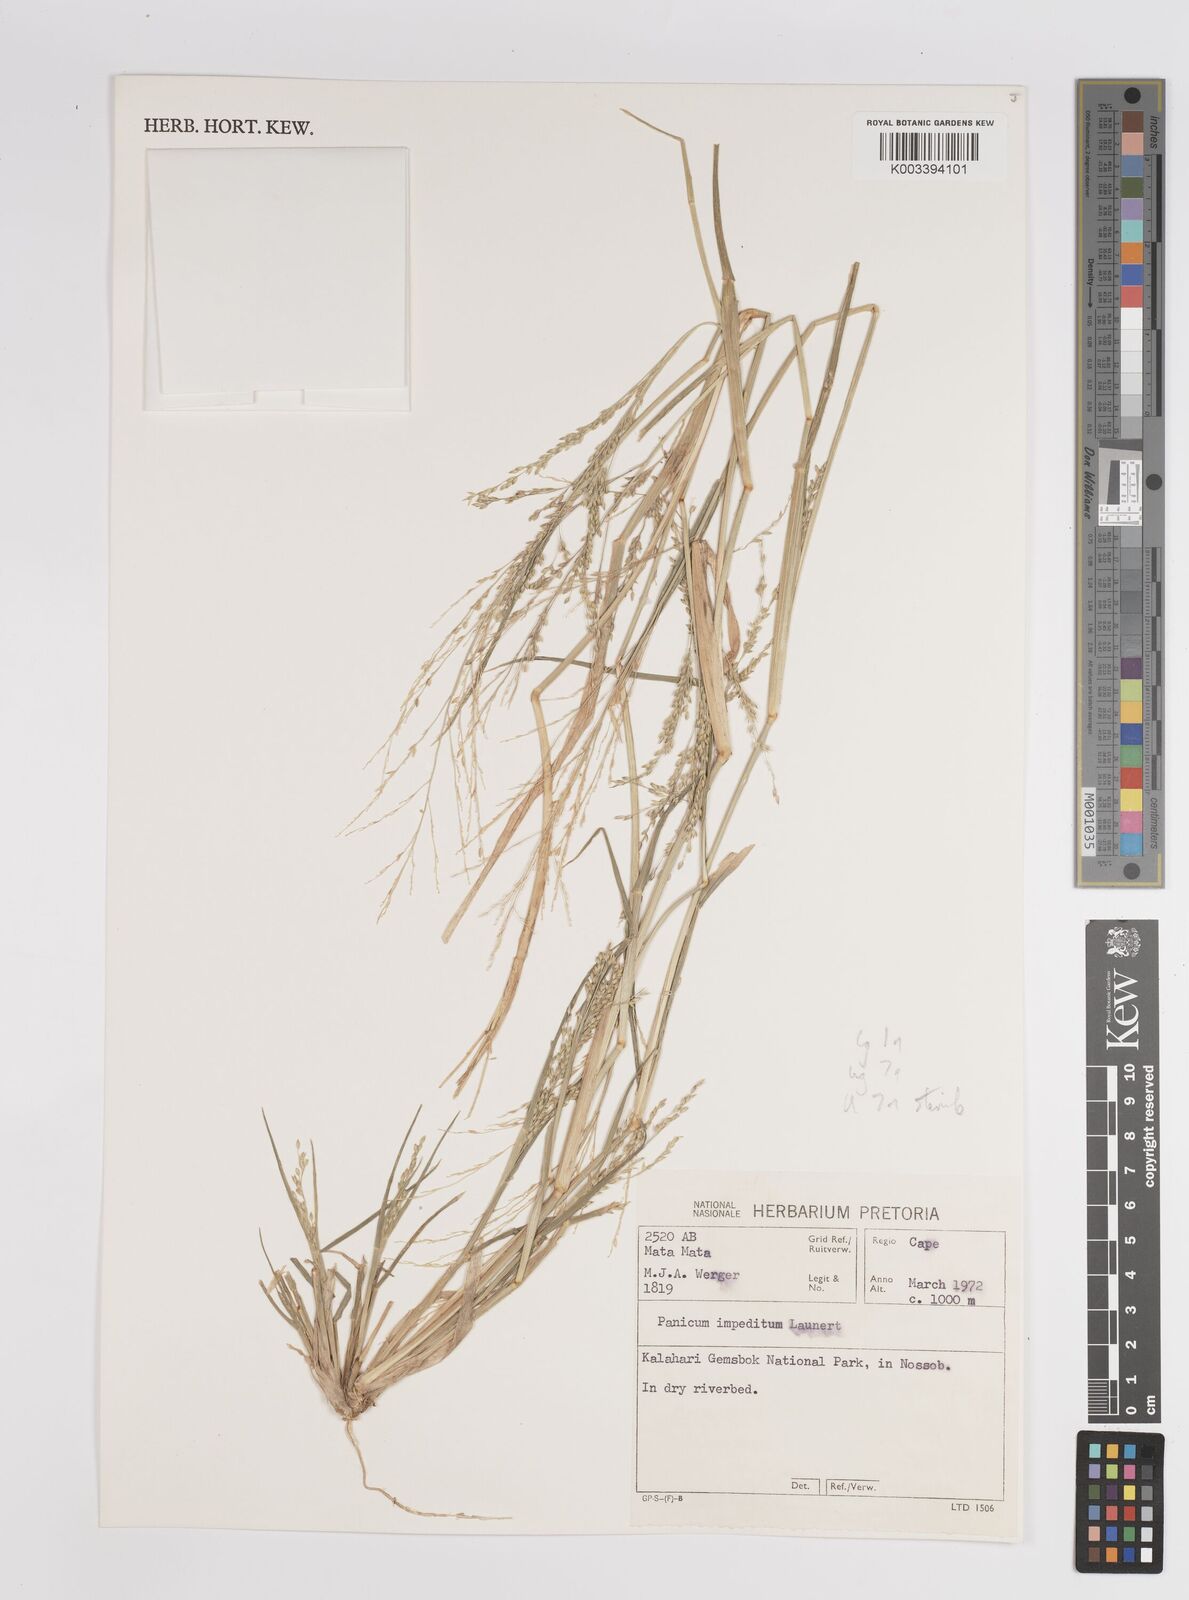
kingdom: Plantae
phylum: Tracheophyta
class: Liliopsida
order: Poales
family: Poaceae
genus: Panicum
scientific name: Panicum impeditum
